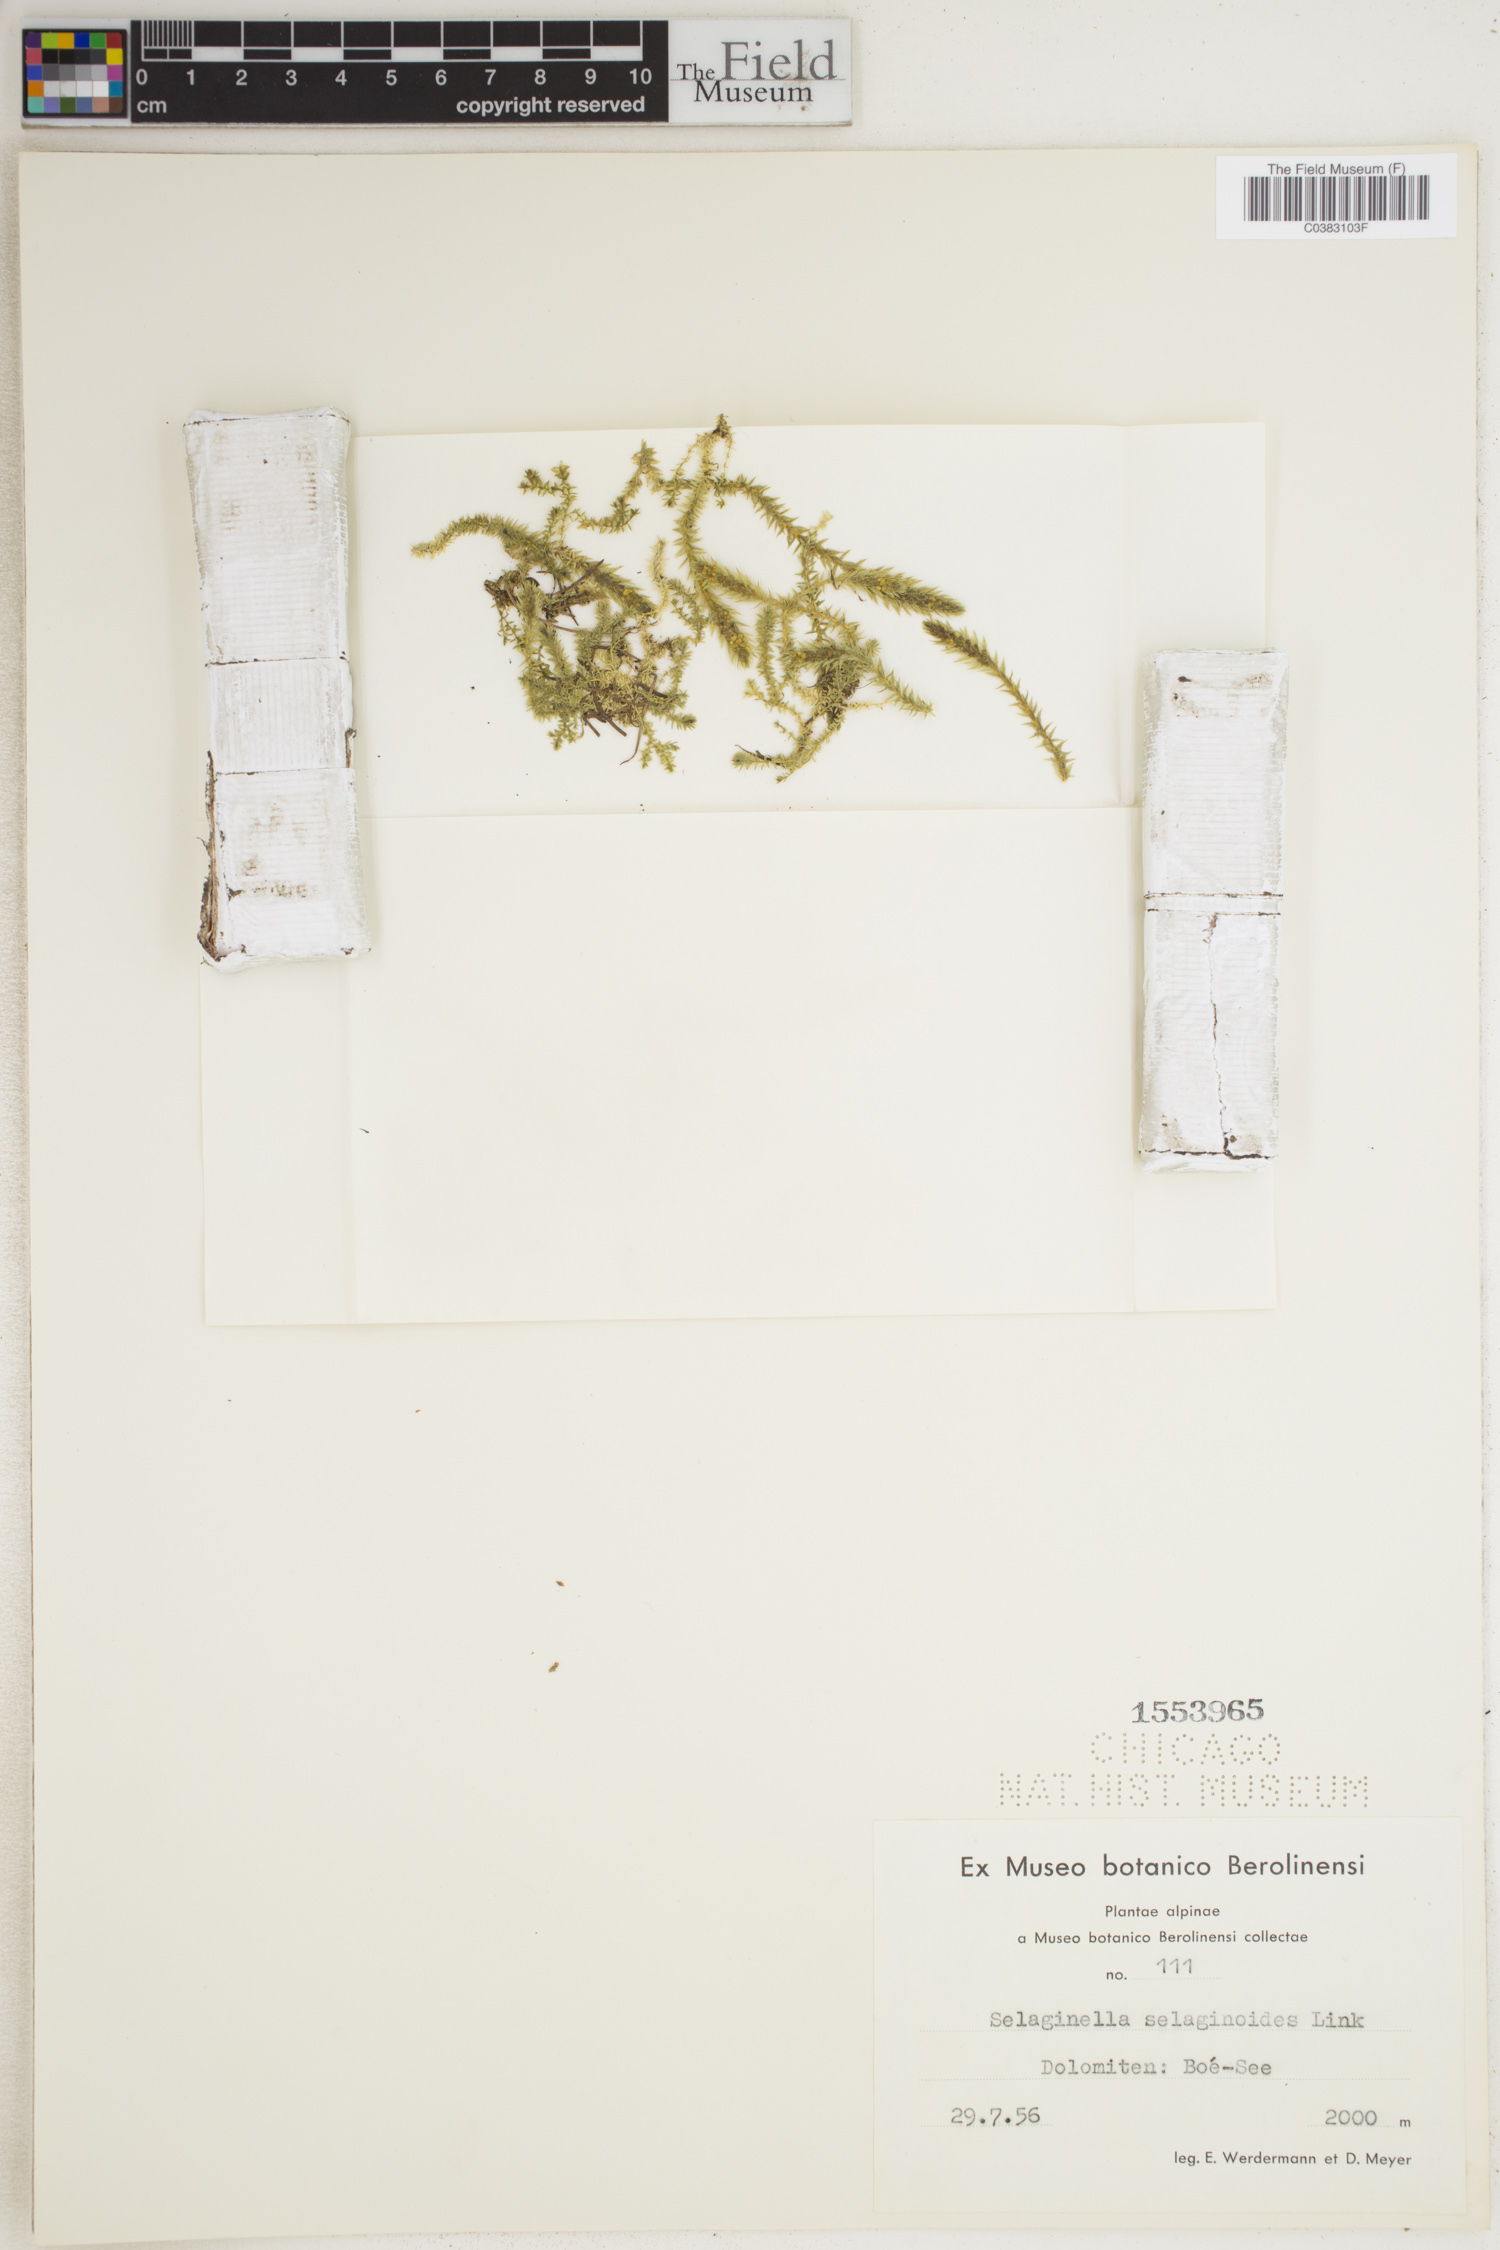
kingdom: Plantae
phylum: Tracheophyta
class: Lycopodiopsida
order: Selaginellales
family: Selaginellaceae
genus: Selaginella
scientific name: Selaginella selaginoides
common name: Prickly mountain-moss
